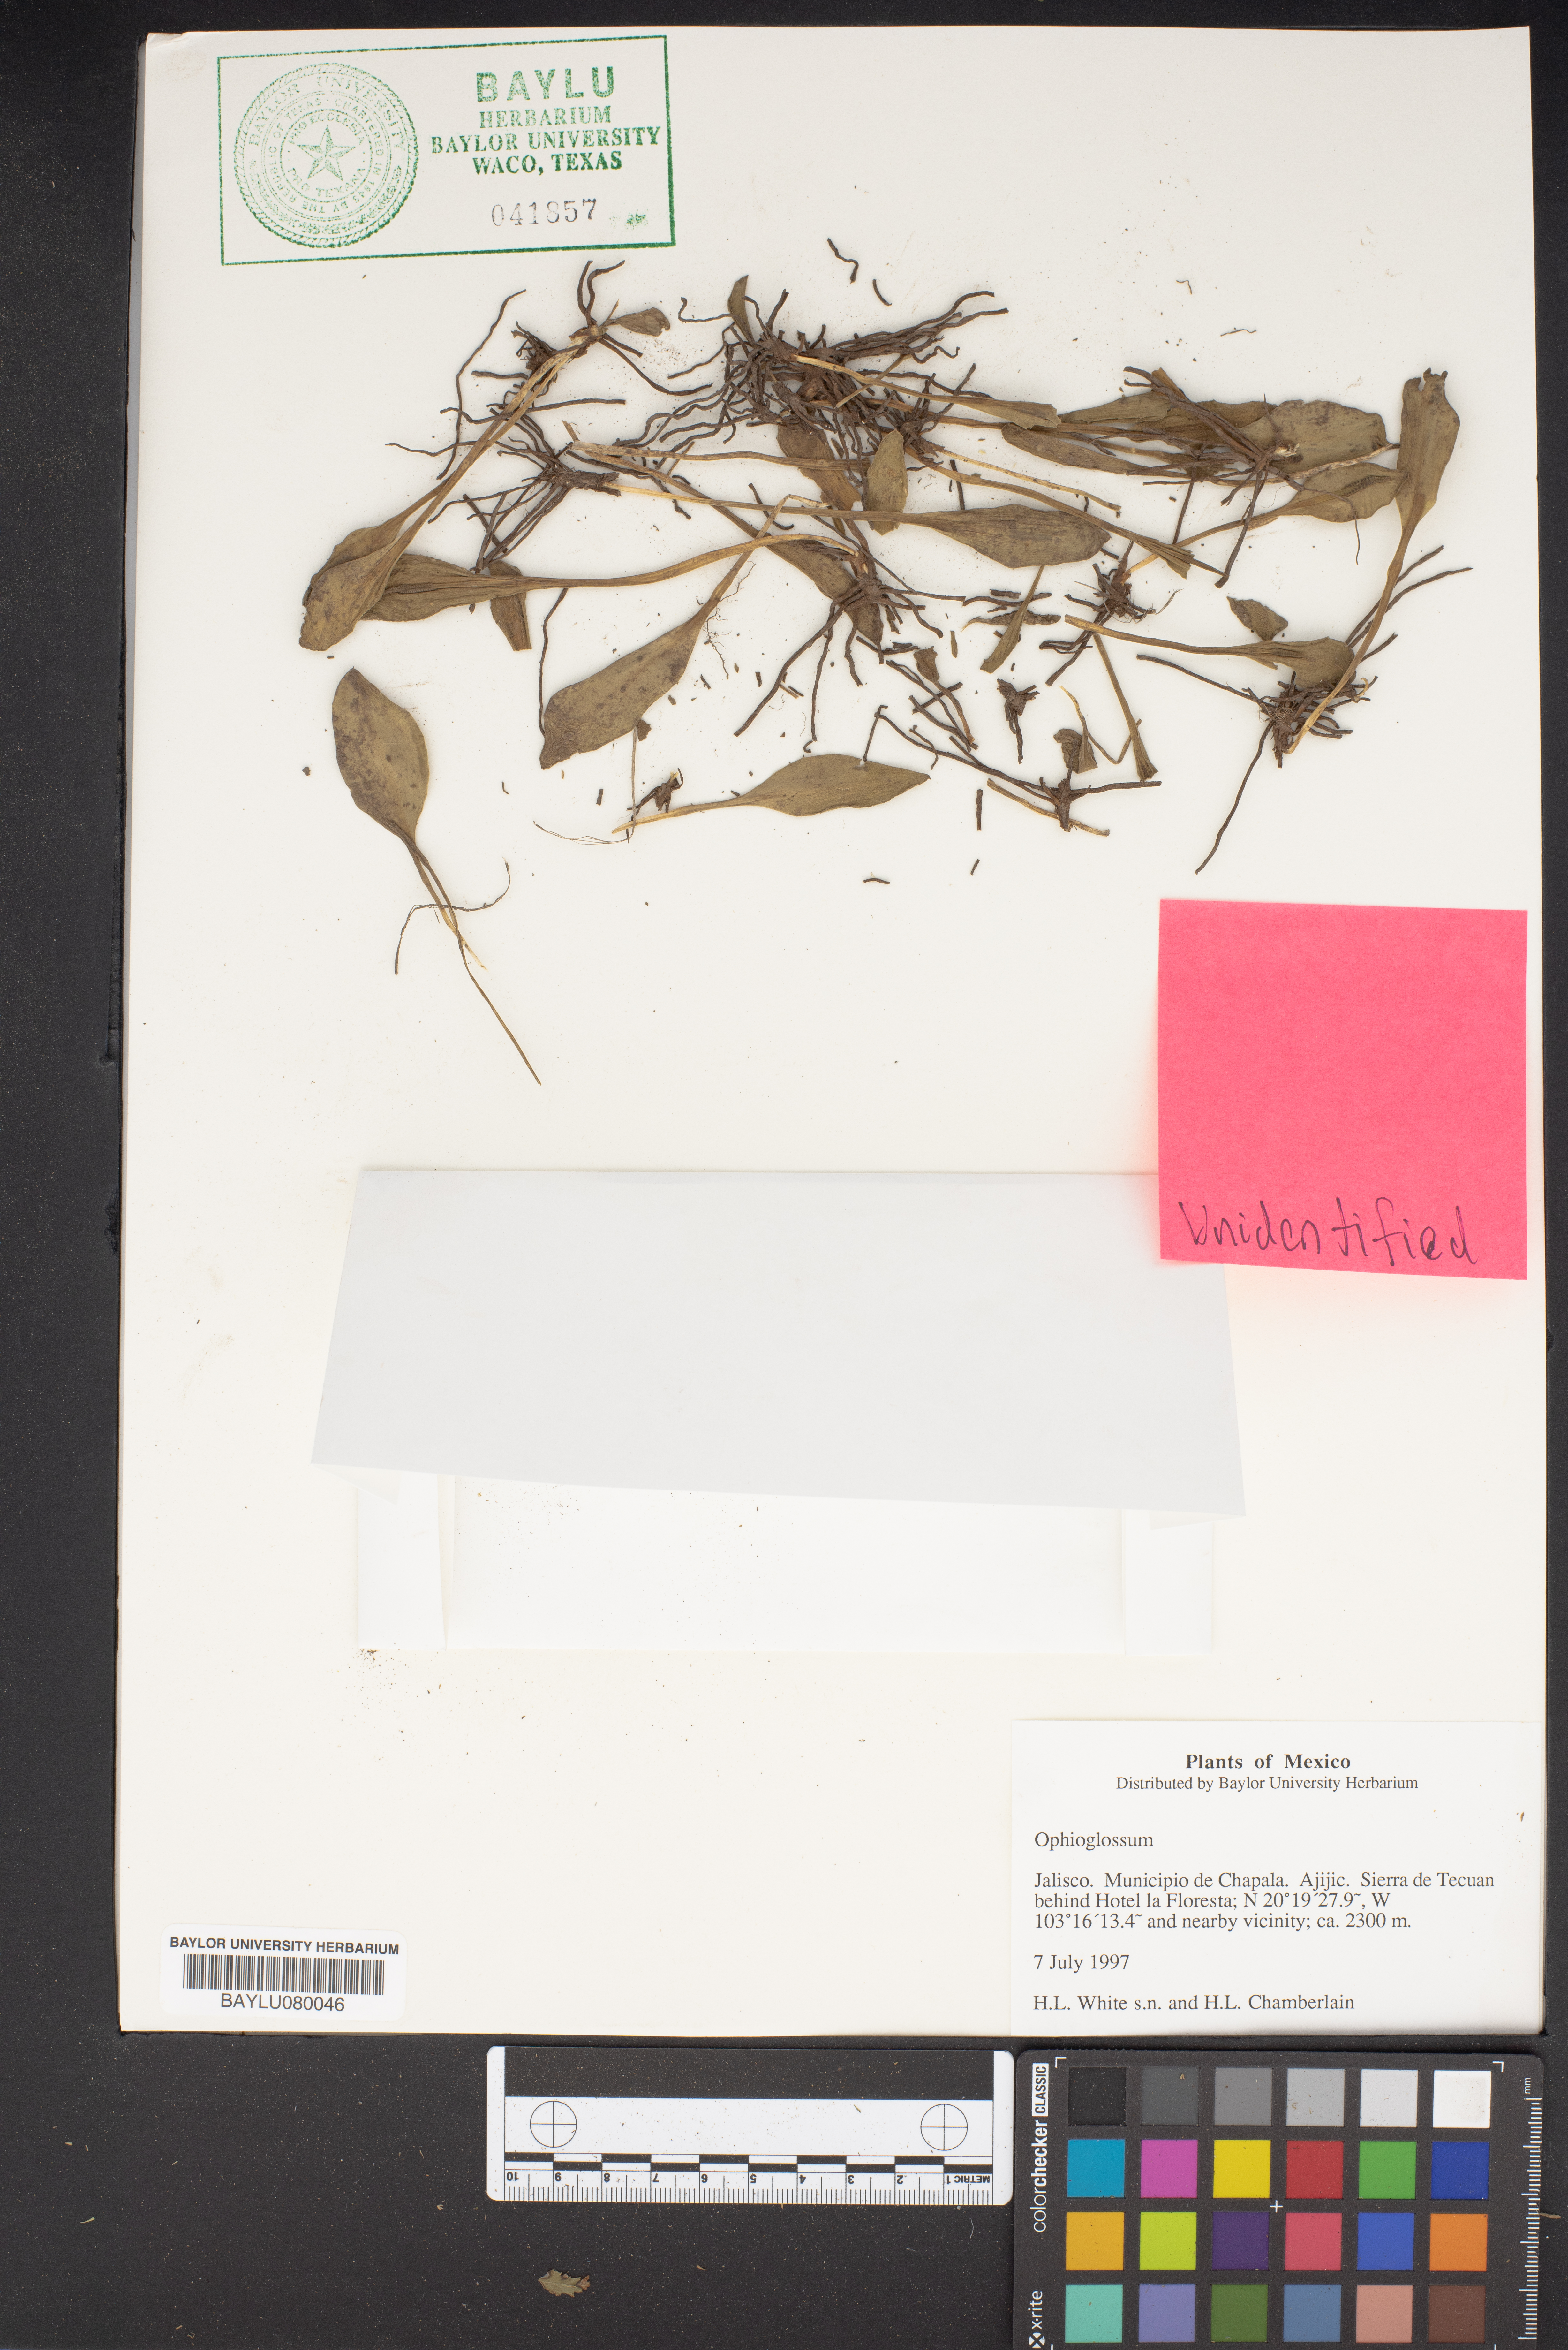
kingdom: Plantae
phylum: Tracheophyta
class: Polypodiopsida
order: Ophioglossales
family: Ophioglossaceae
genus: Ophioglossum
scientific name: Ophioglossum
